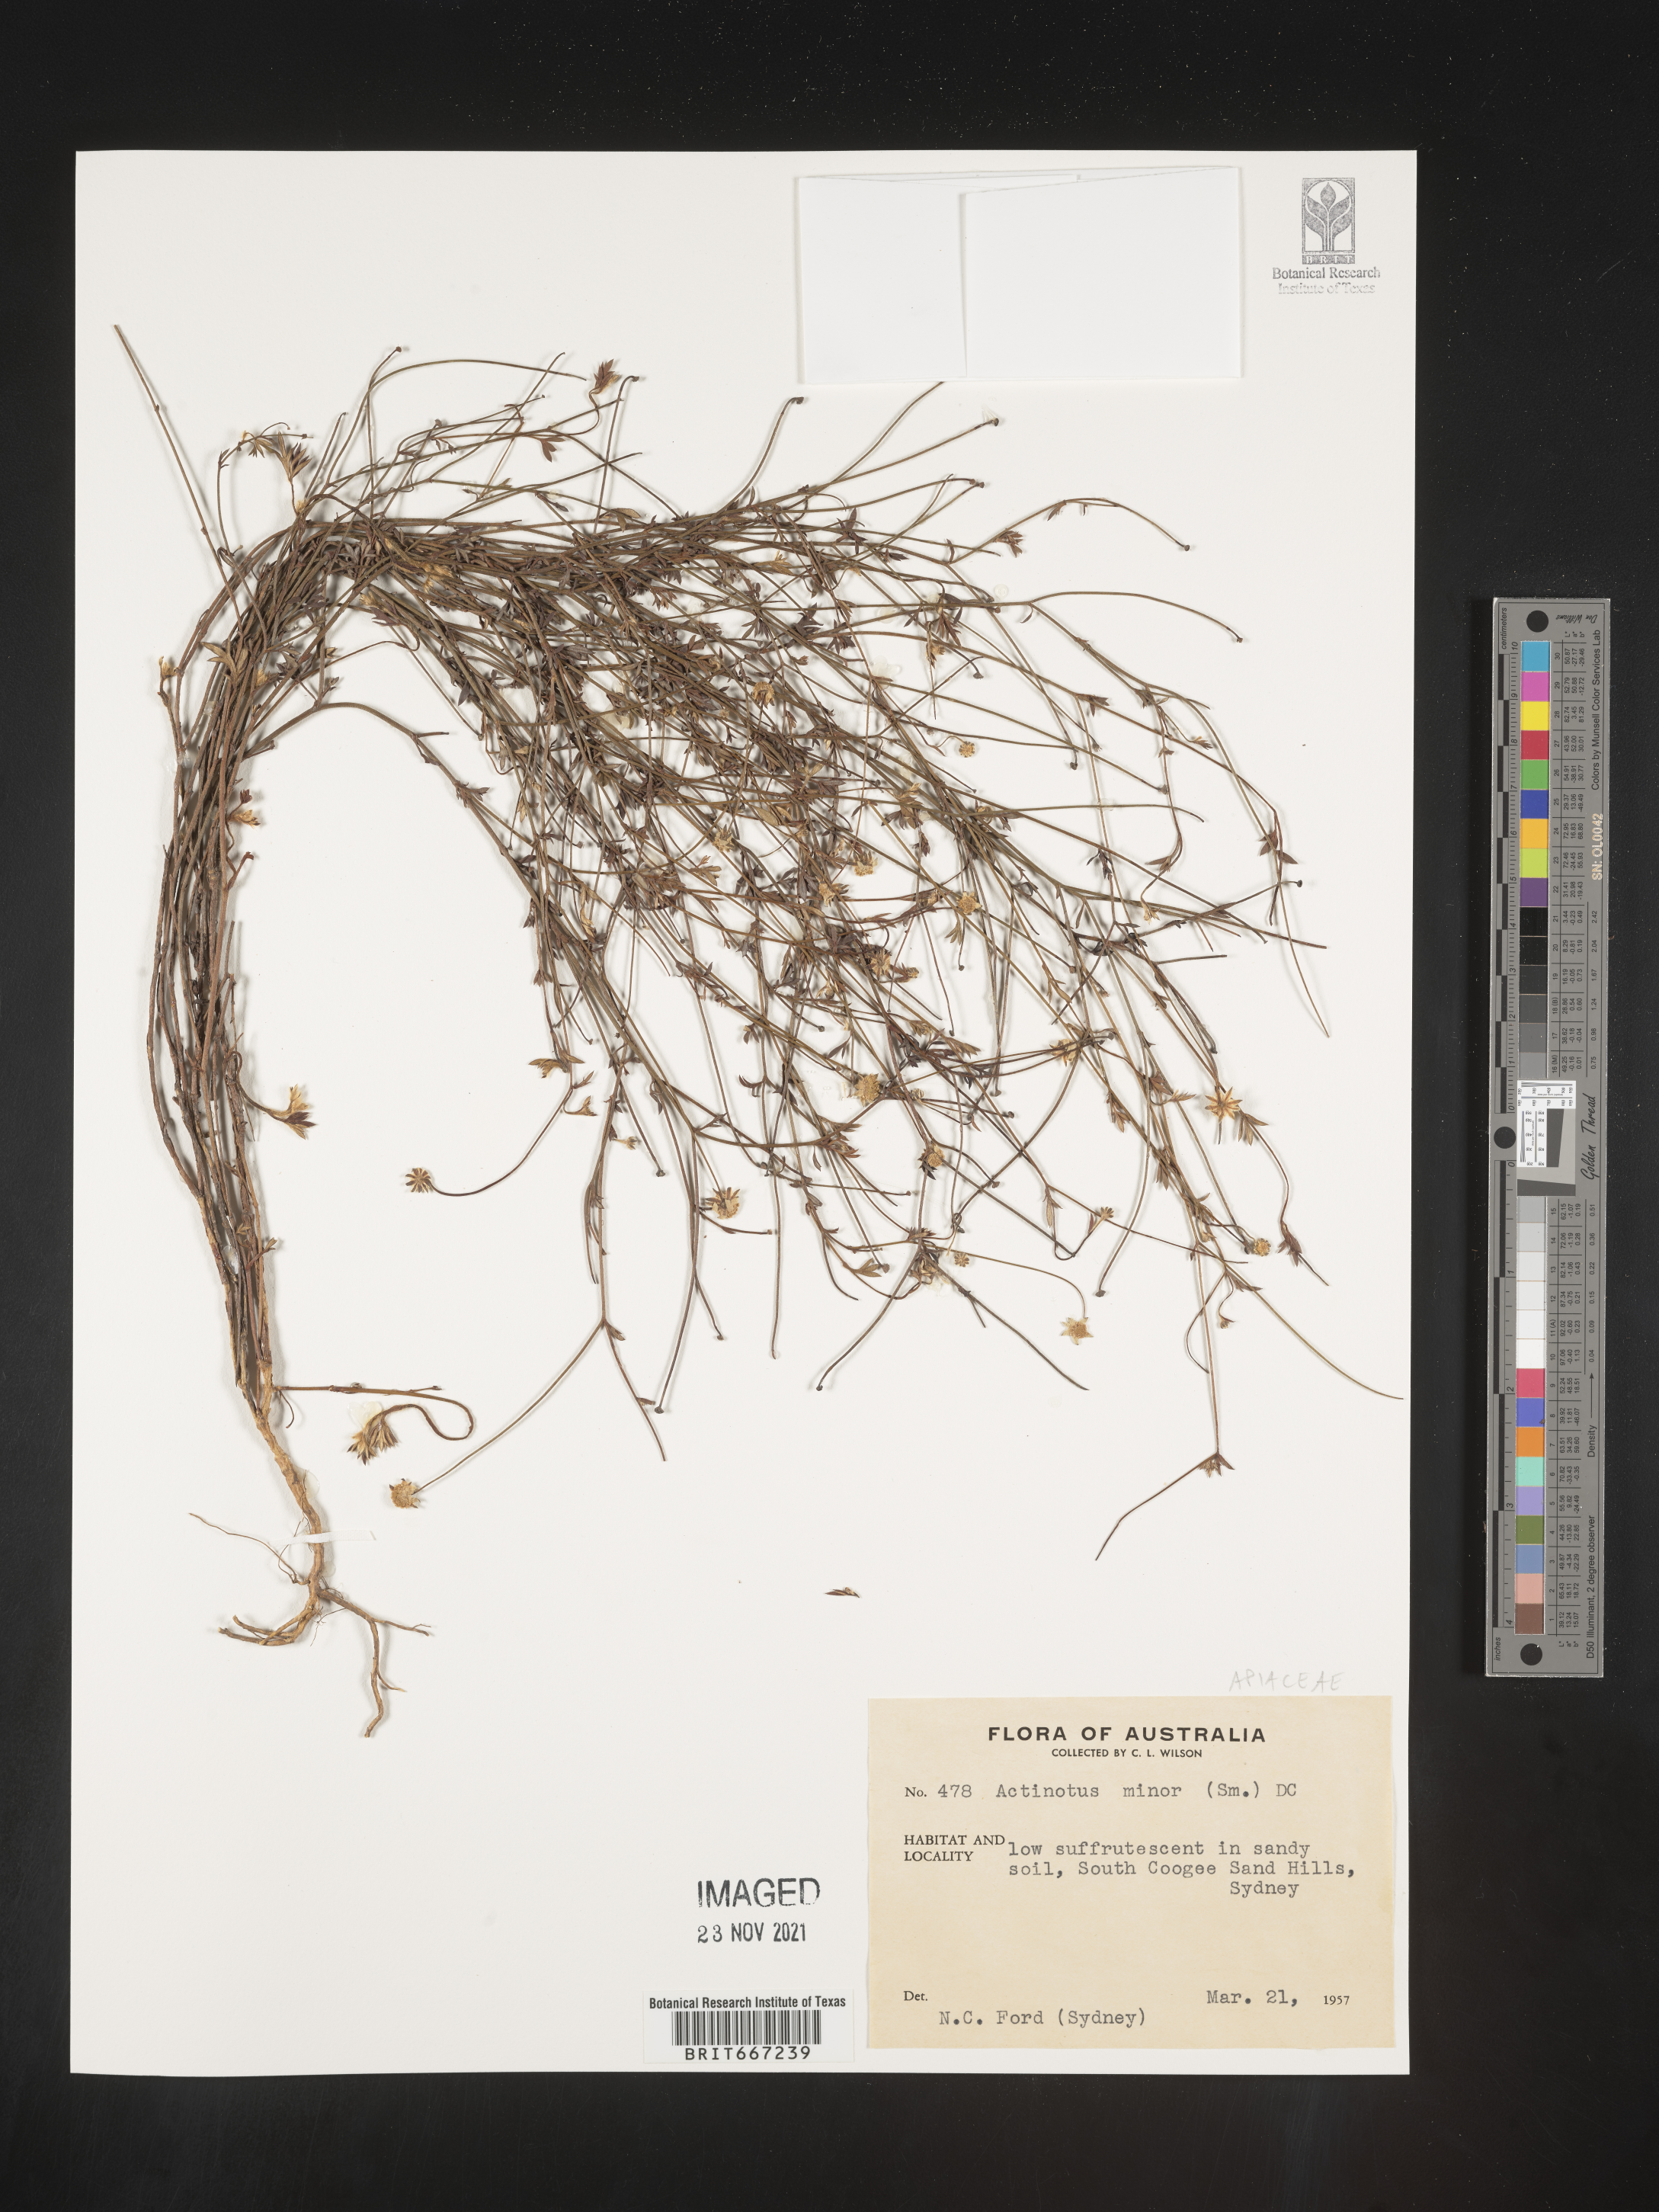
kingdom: Plantae
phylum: Tracheophyta
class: Magnoliopsida
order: Apiales
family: Apiaceae
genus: Actinotus
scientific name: Actinotus
